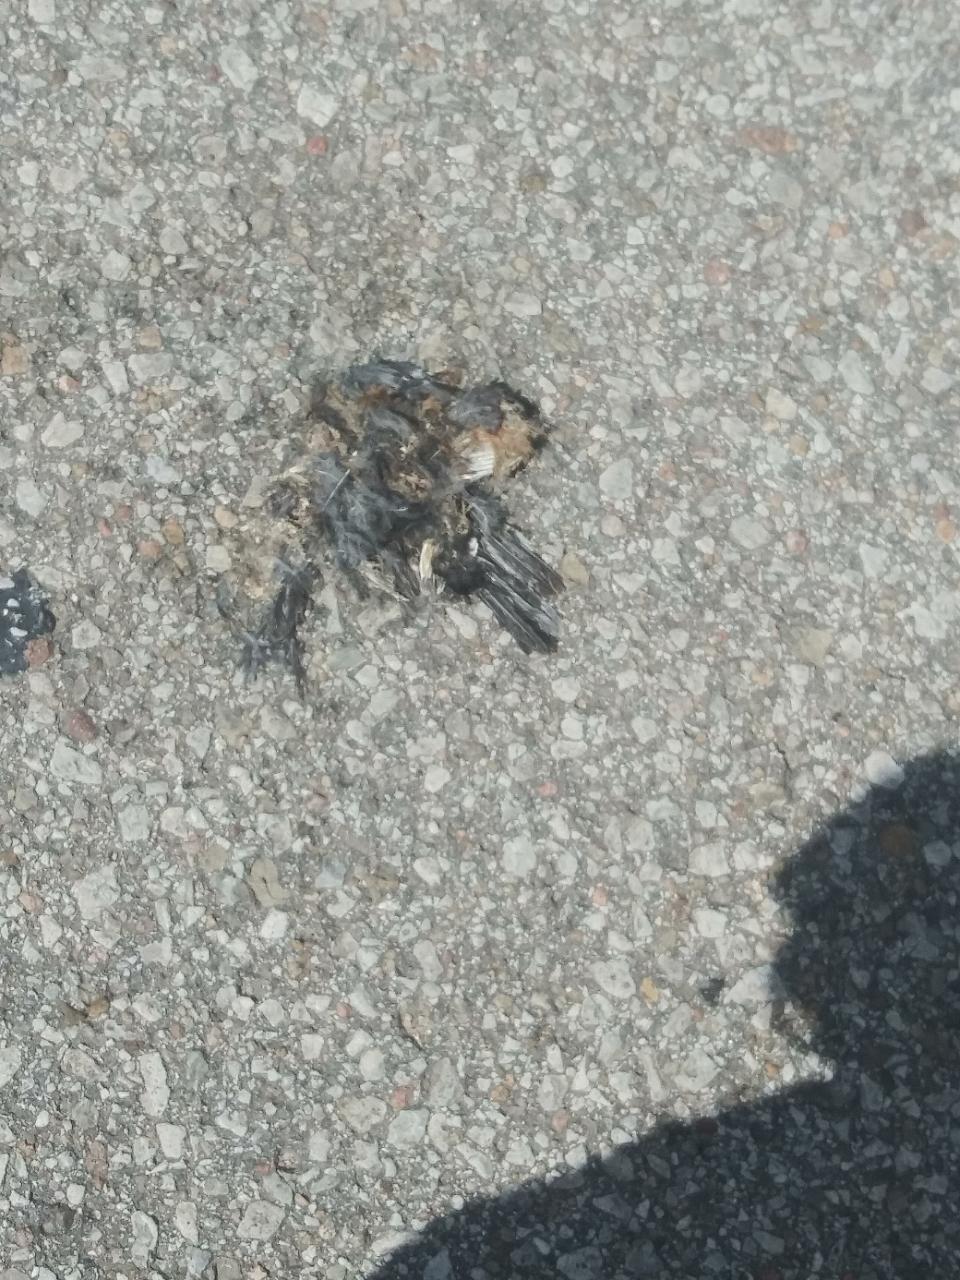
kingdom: Animalia
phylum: Chordata
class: Aves
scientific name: Aves
